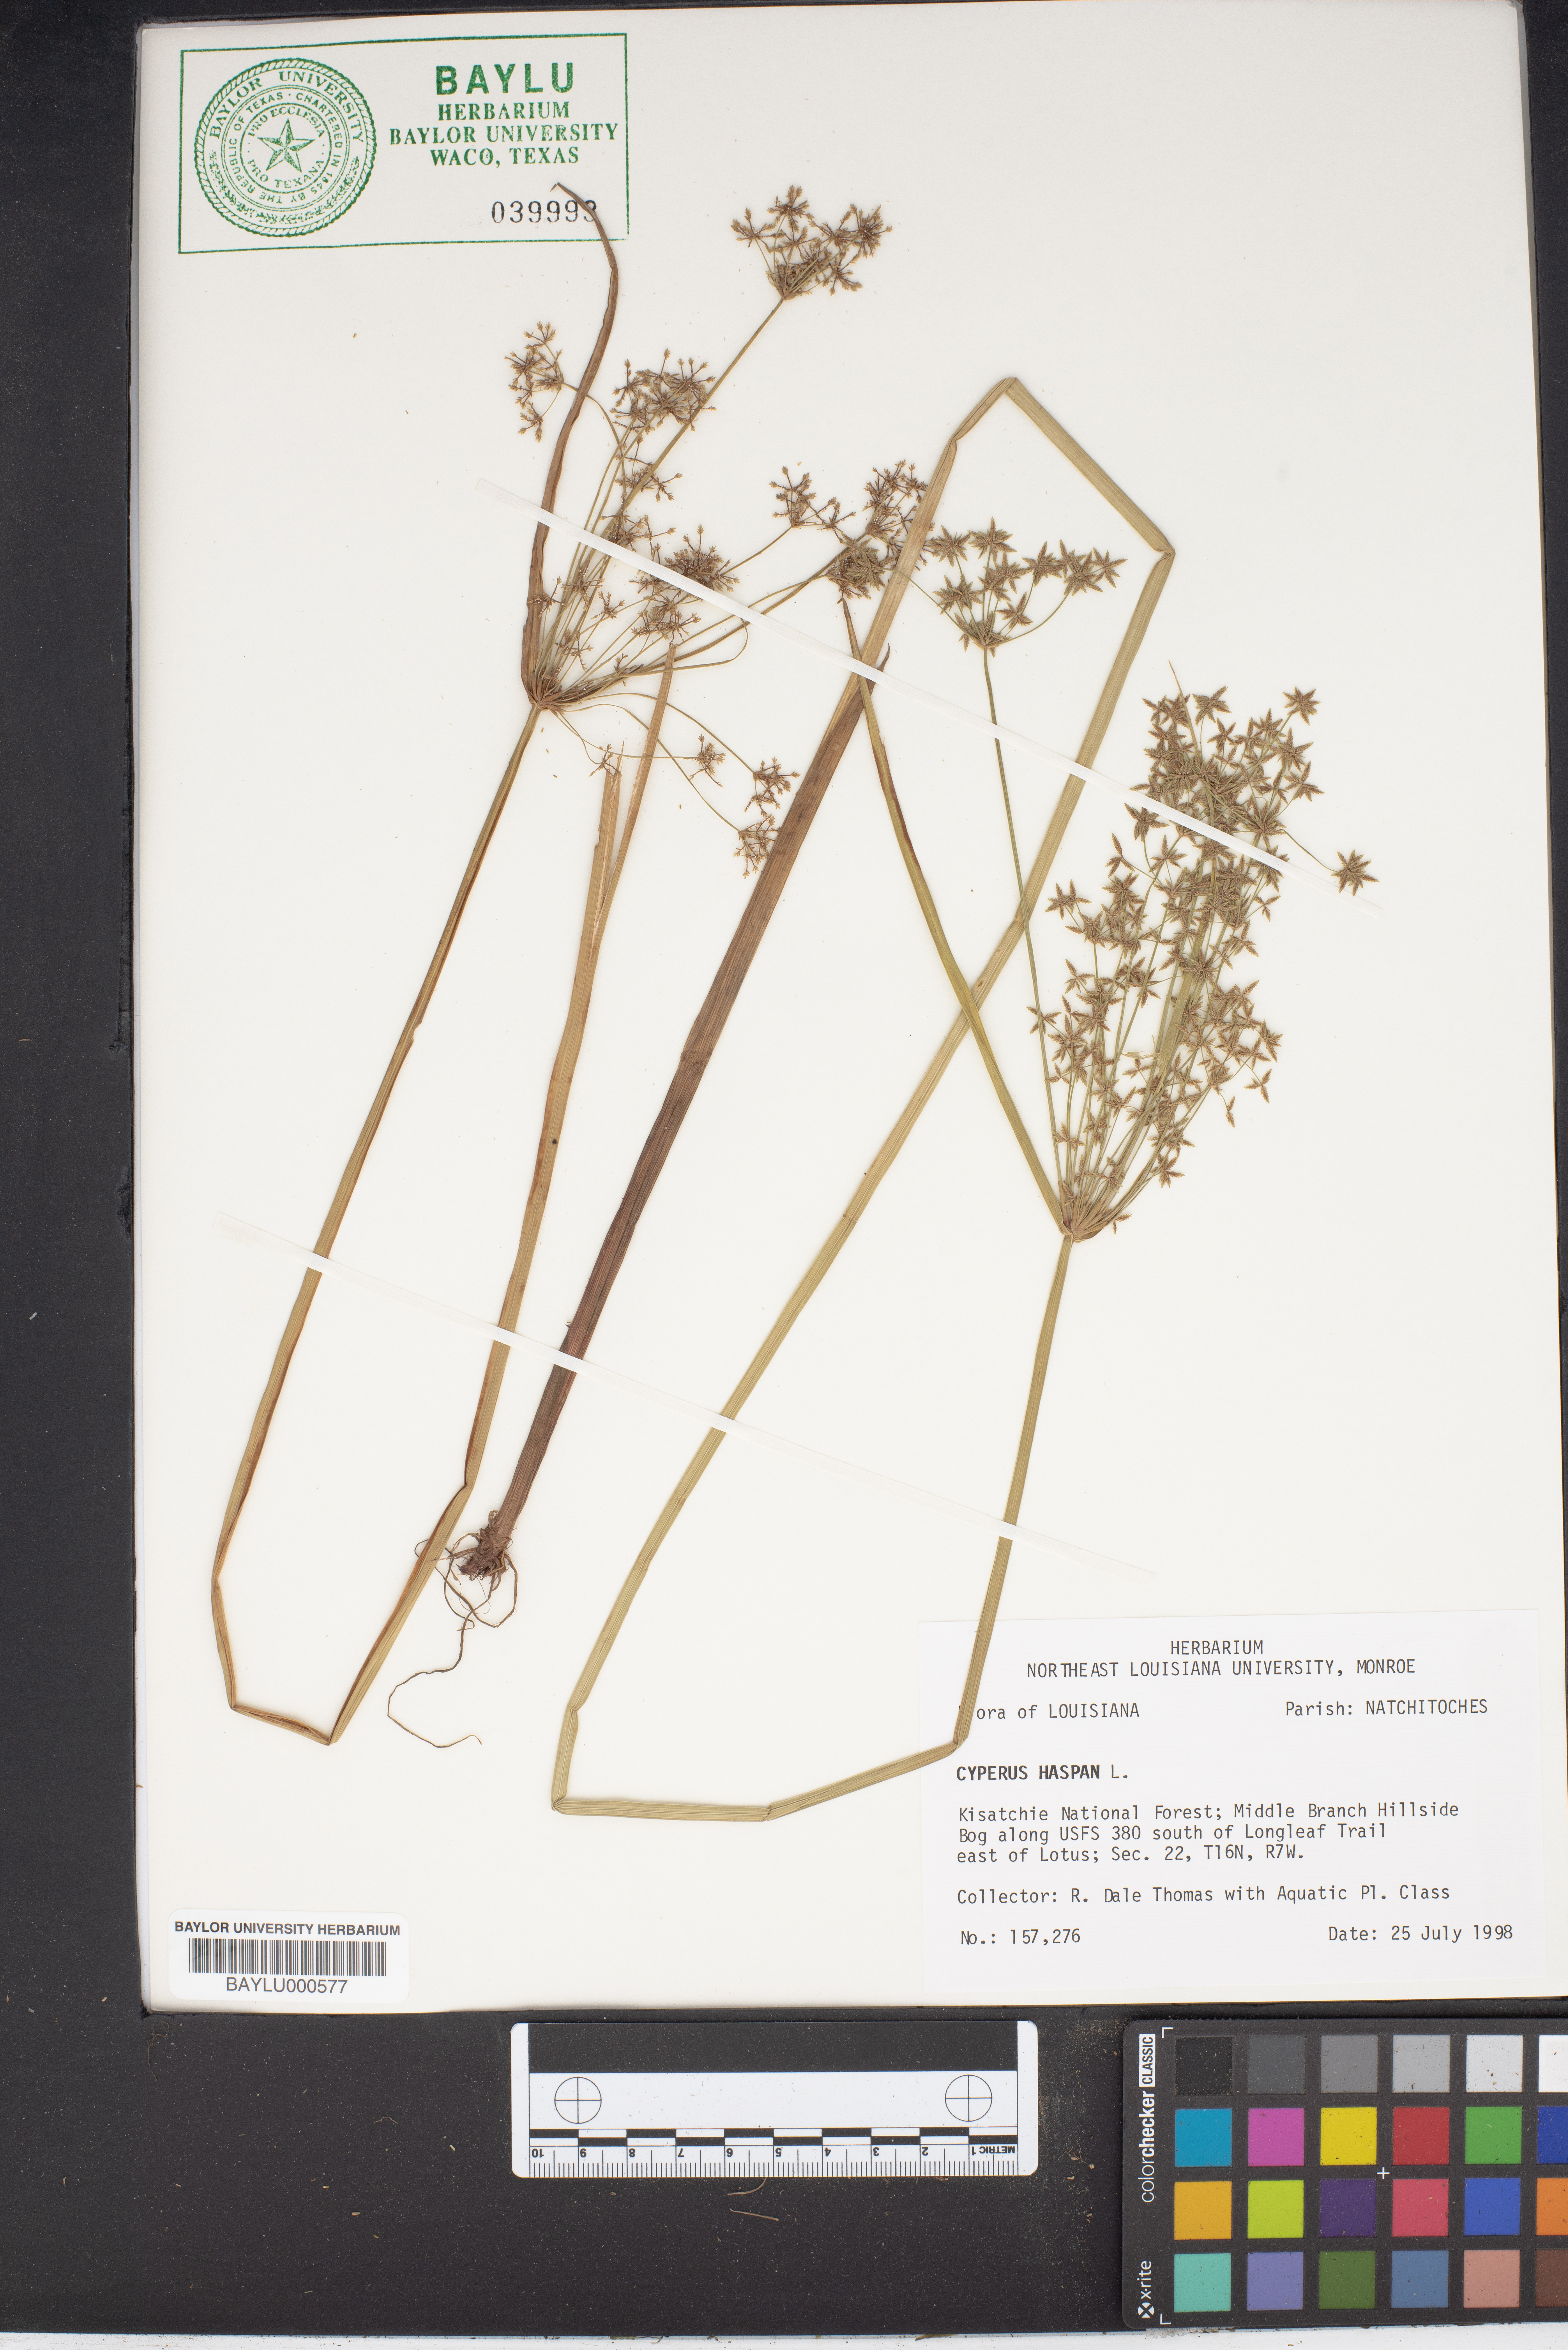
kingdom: Plantae
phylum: Tracheophyta
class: Liliopsida
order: Poales
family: Cyperaceae
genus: Cyperus
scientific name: Cyperus haspan
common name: Haspan flatsedge
